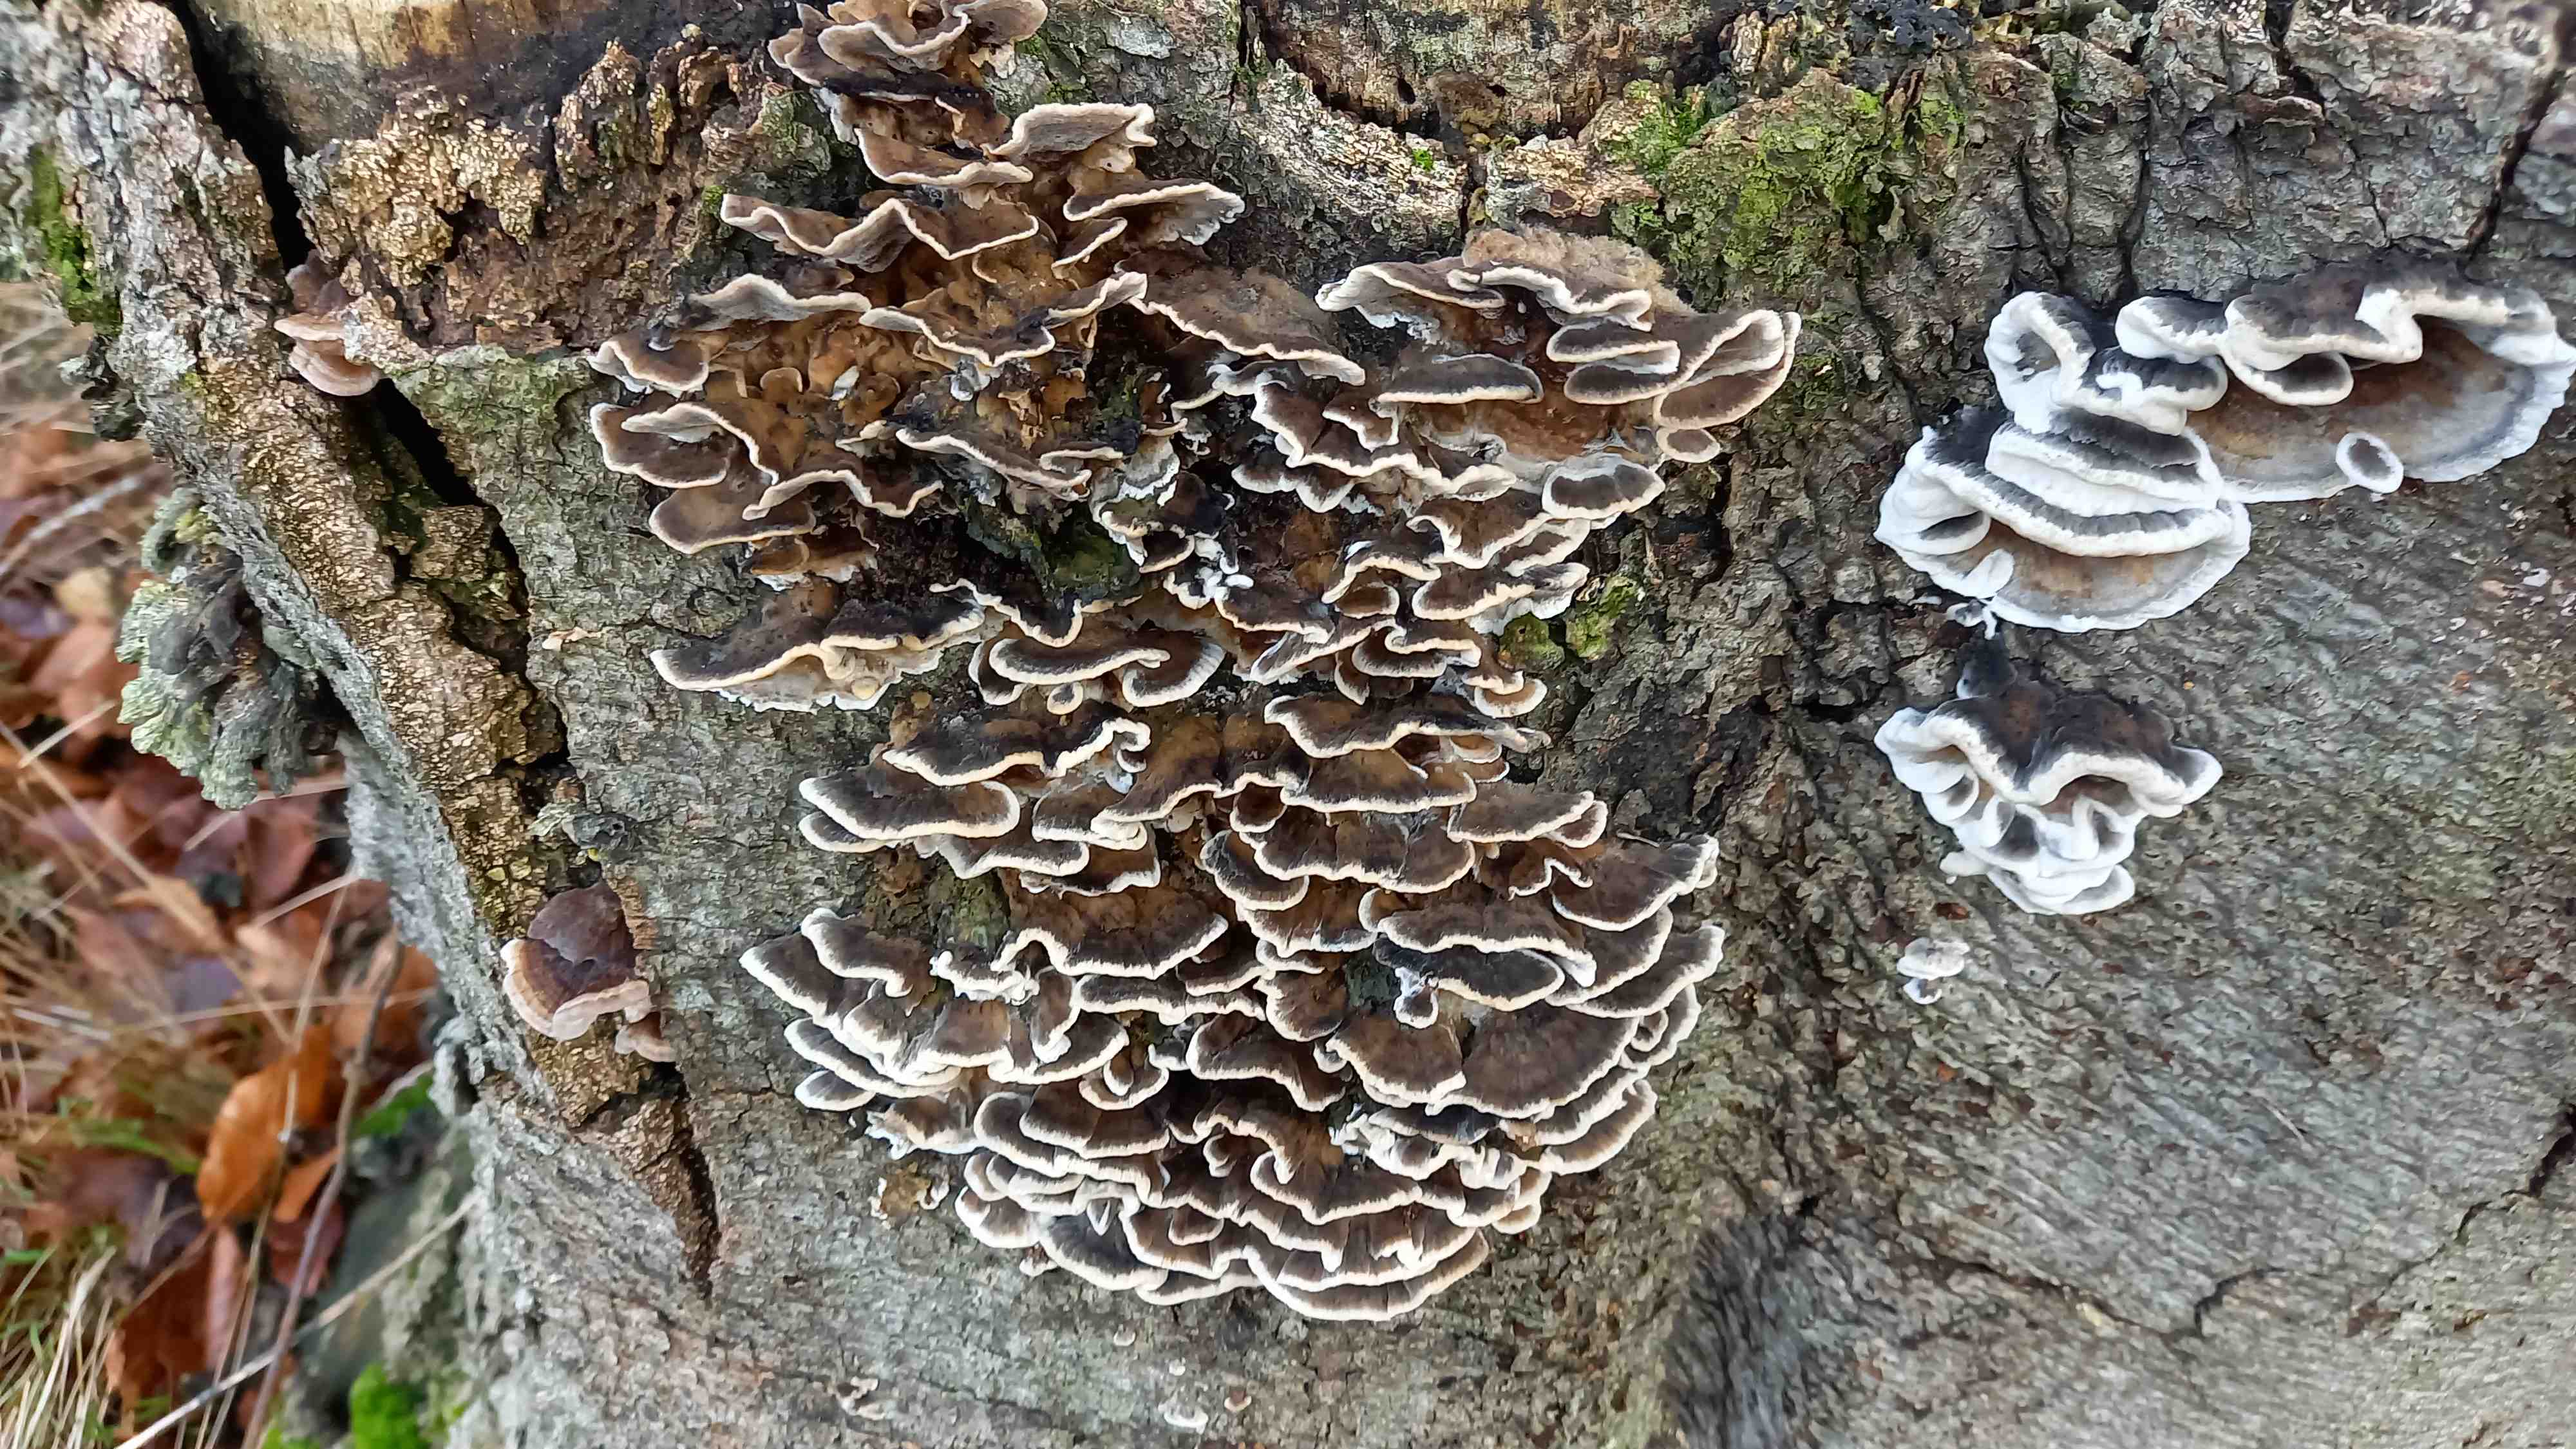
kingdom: Fungi
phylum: Basidiomycota
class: Agaricomycetes
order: Polyporales
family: Phanerochaetaceae
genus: Bjerkandera
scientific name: Bjerkandera adusta
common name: sveden sodporesvamp
